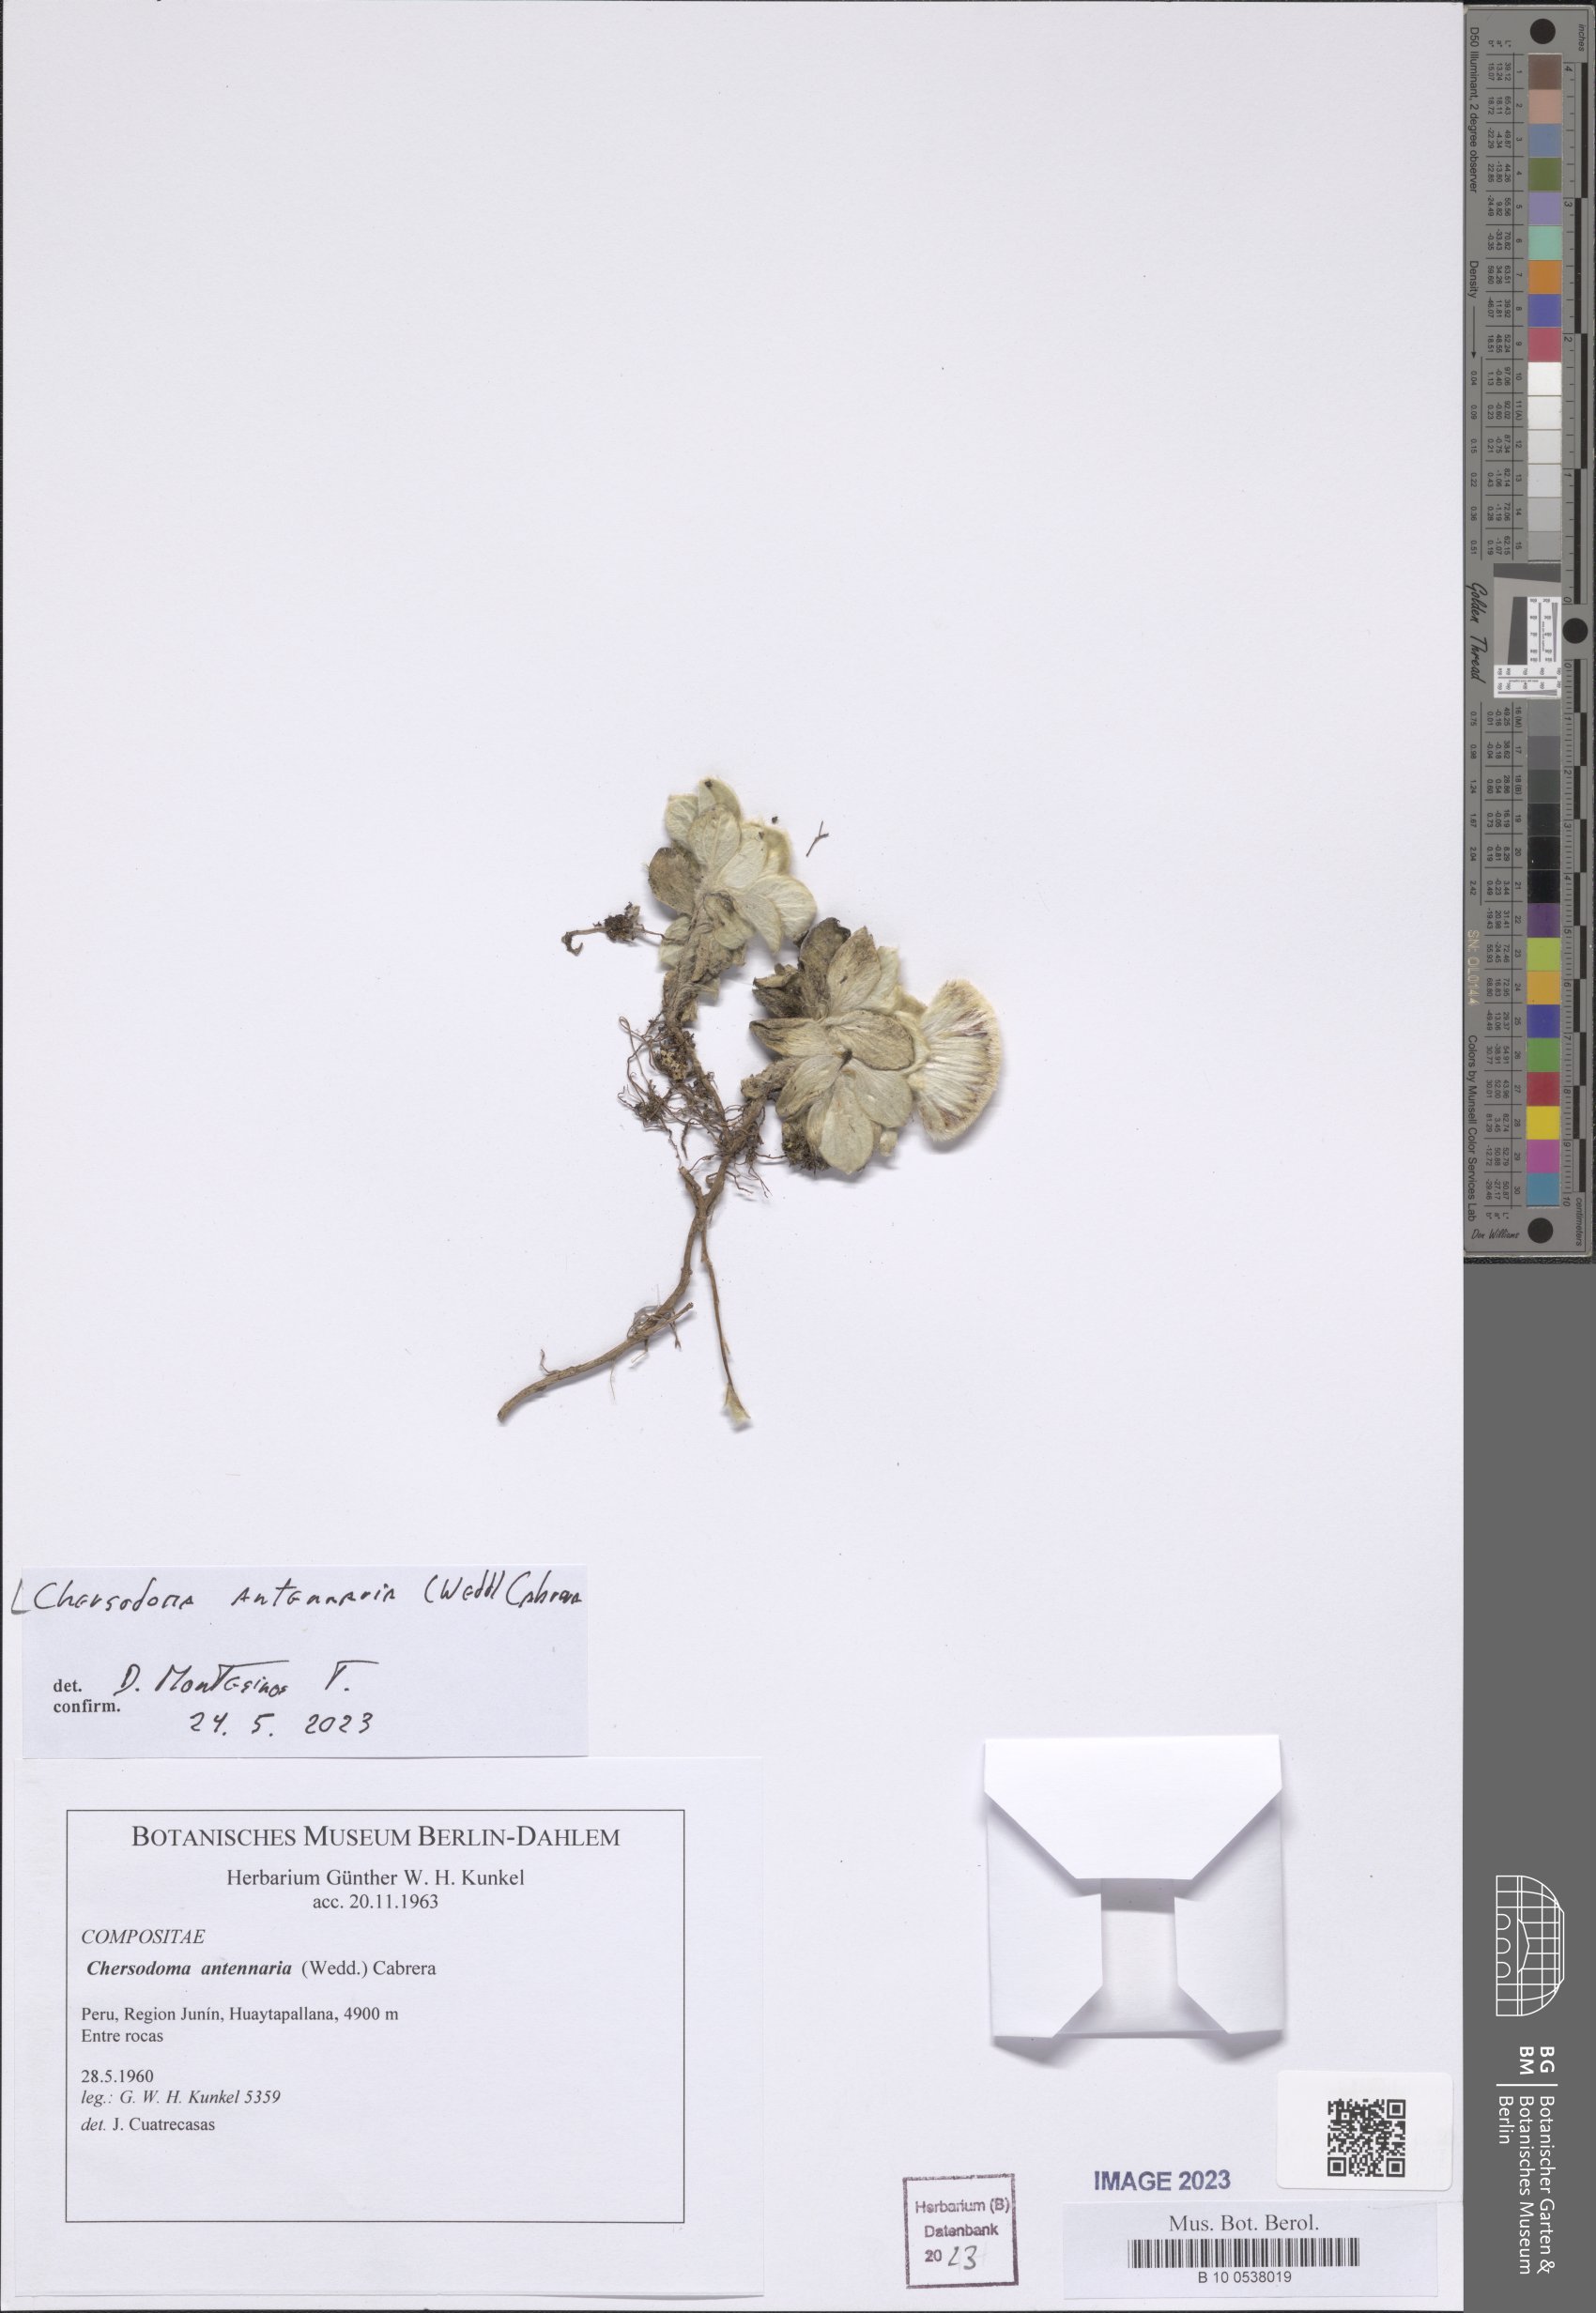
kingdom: Plantae
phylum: Tracheophyta
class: Magnoliopsida
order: Asterales
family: Asteraceae
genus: Chersodoma
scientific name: Chersodoma antennaria
